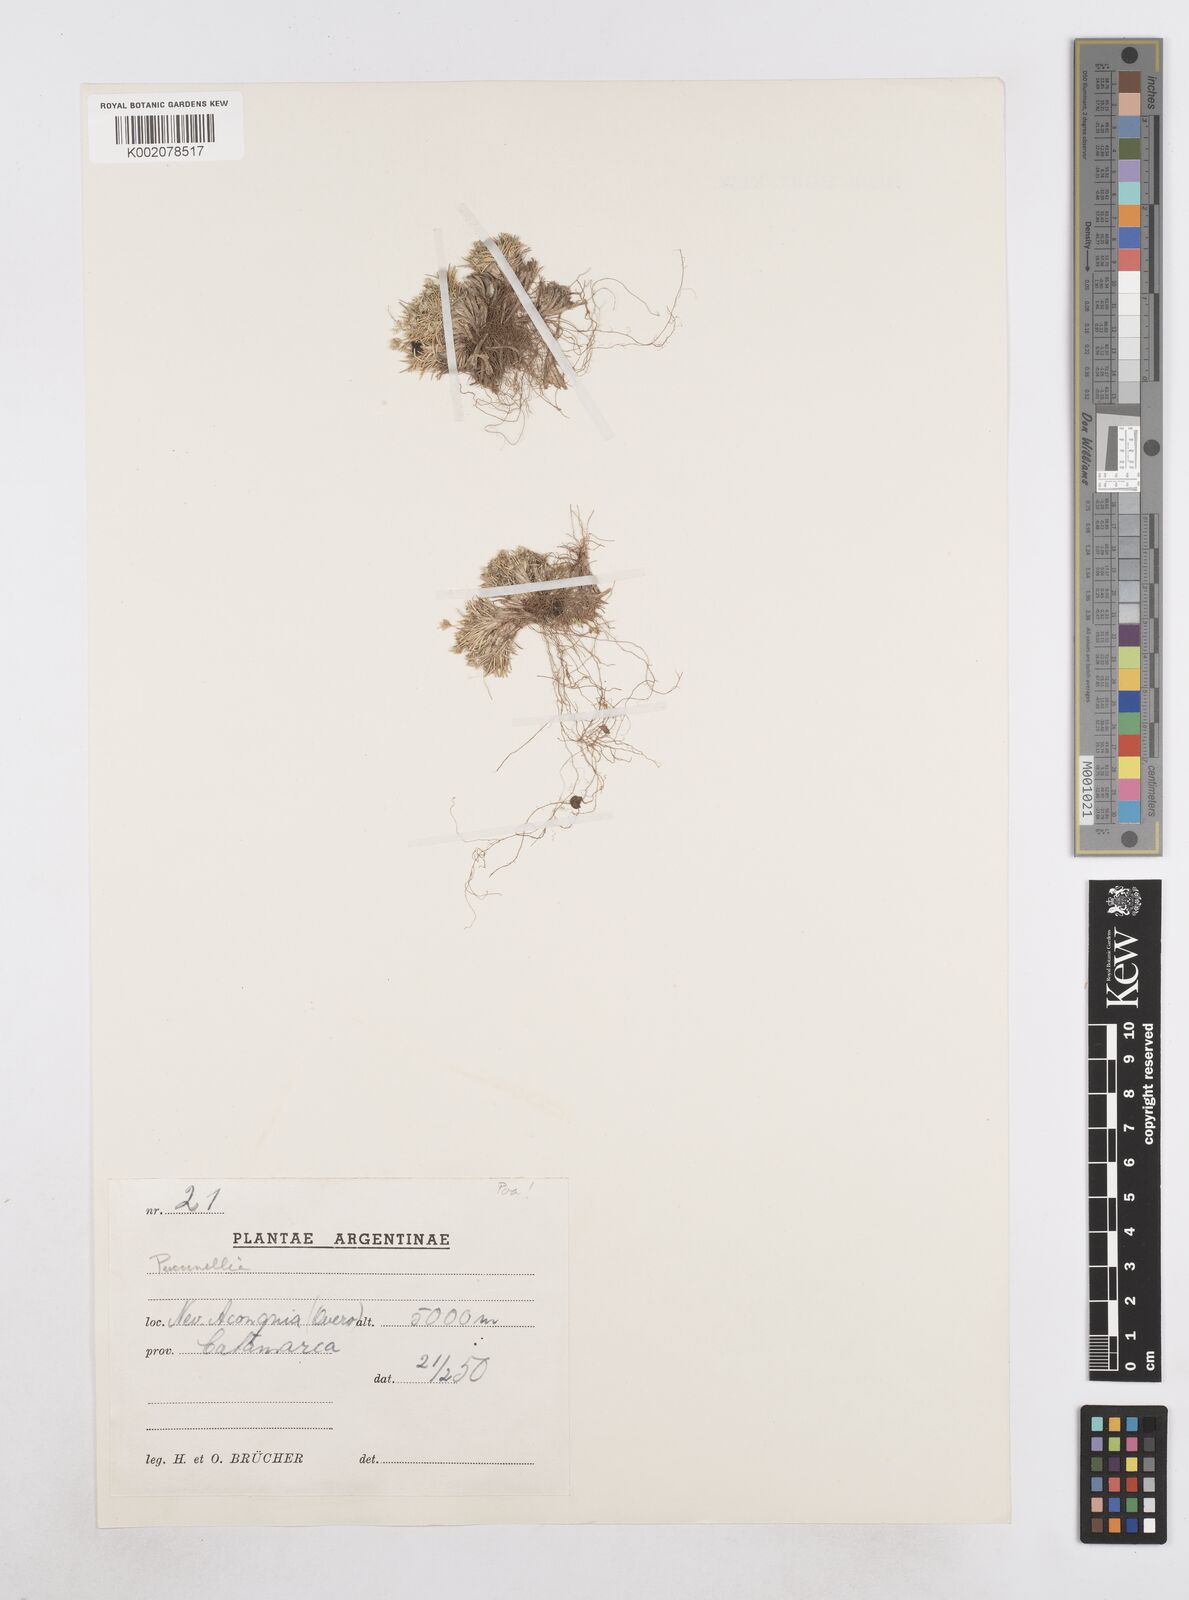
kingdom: Plantae
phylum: Tracheophyta
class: Liliopsida
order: Poales
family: Poaceae
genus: Poa
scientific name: Poa humillima
